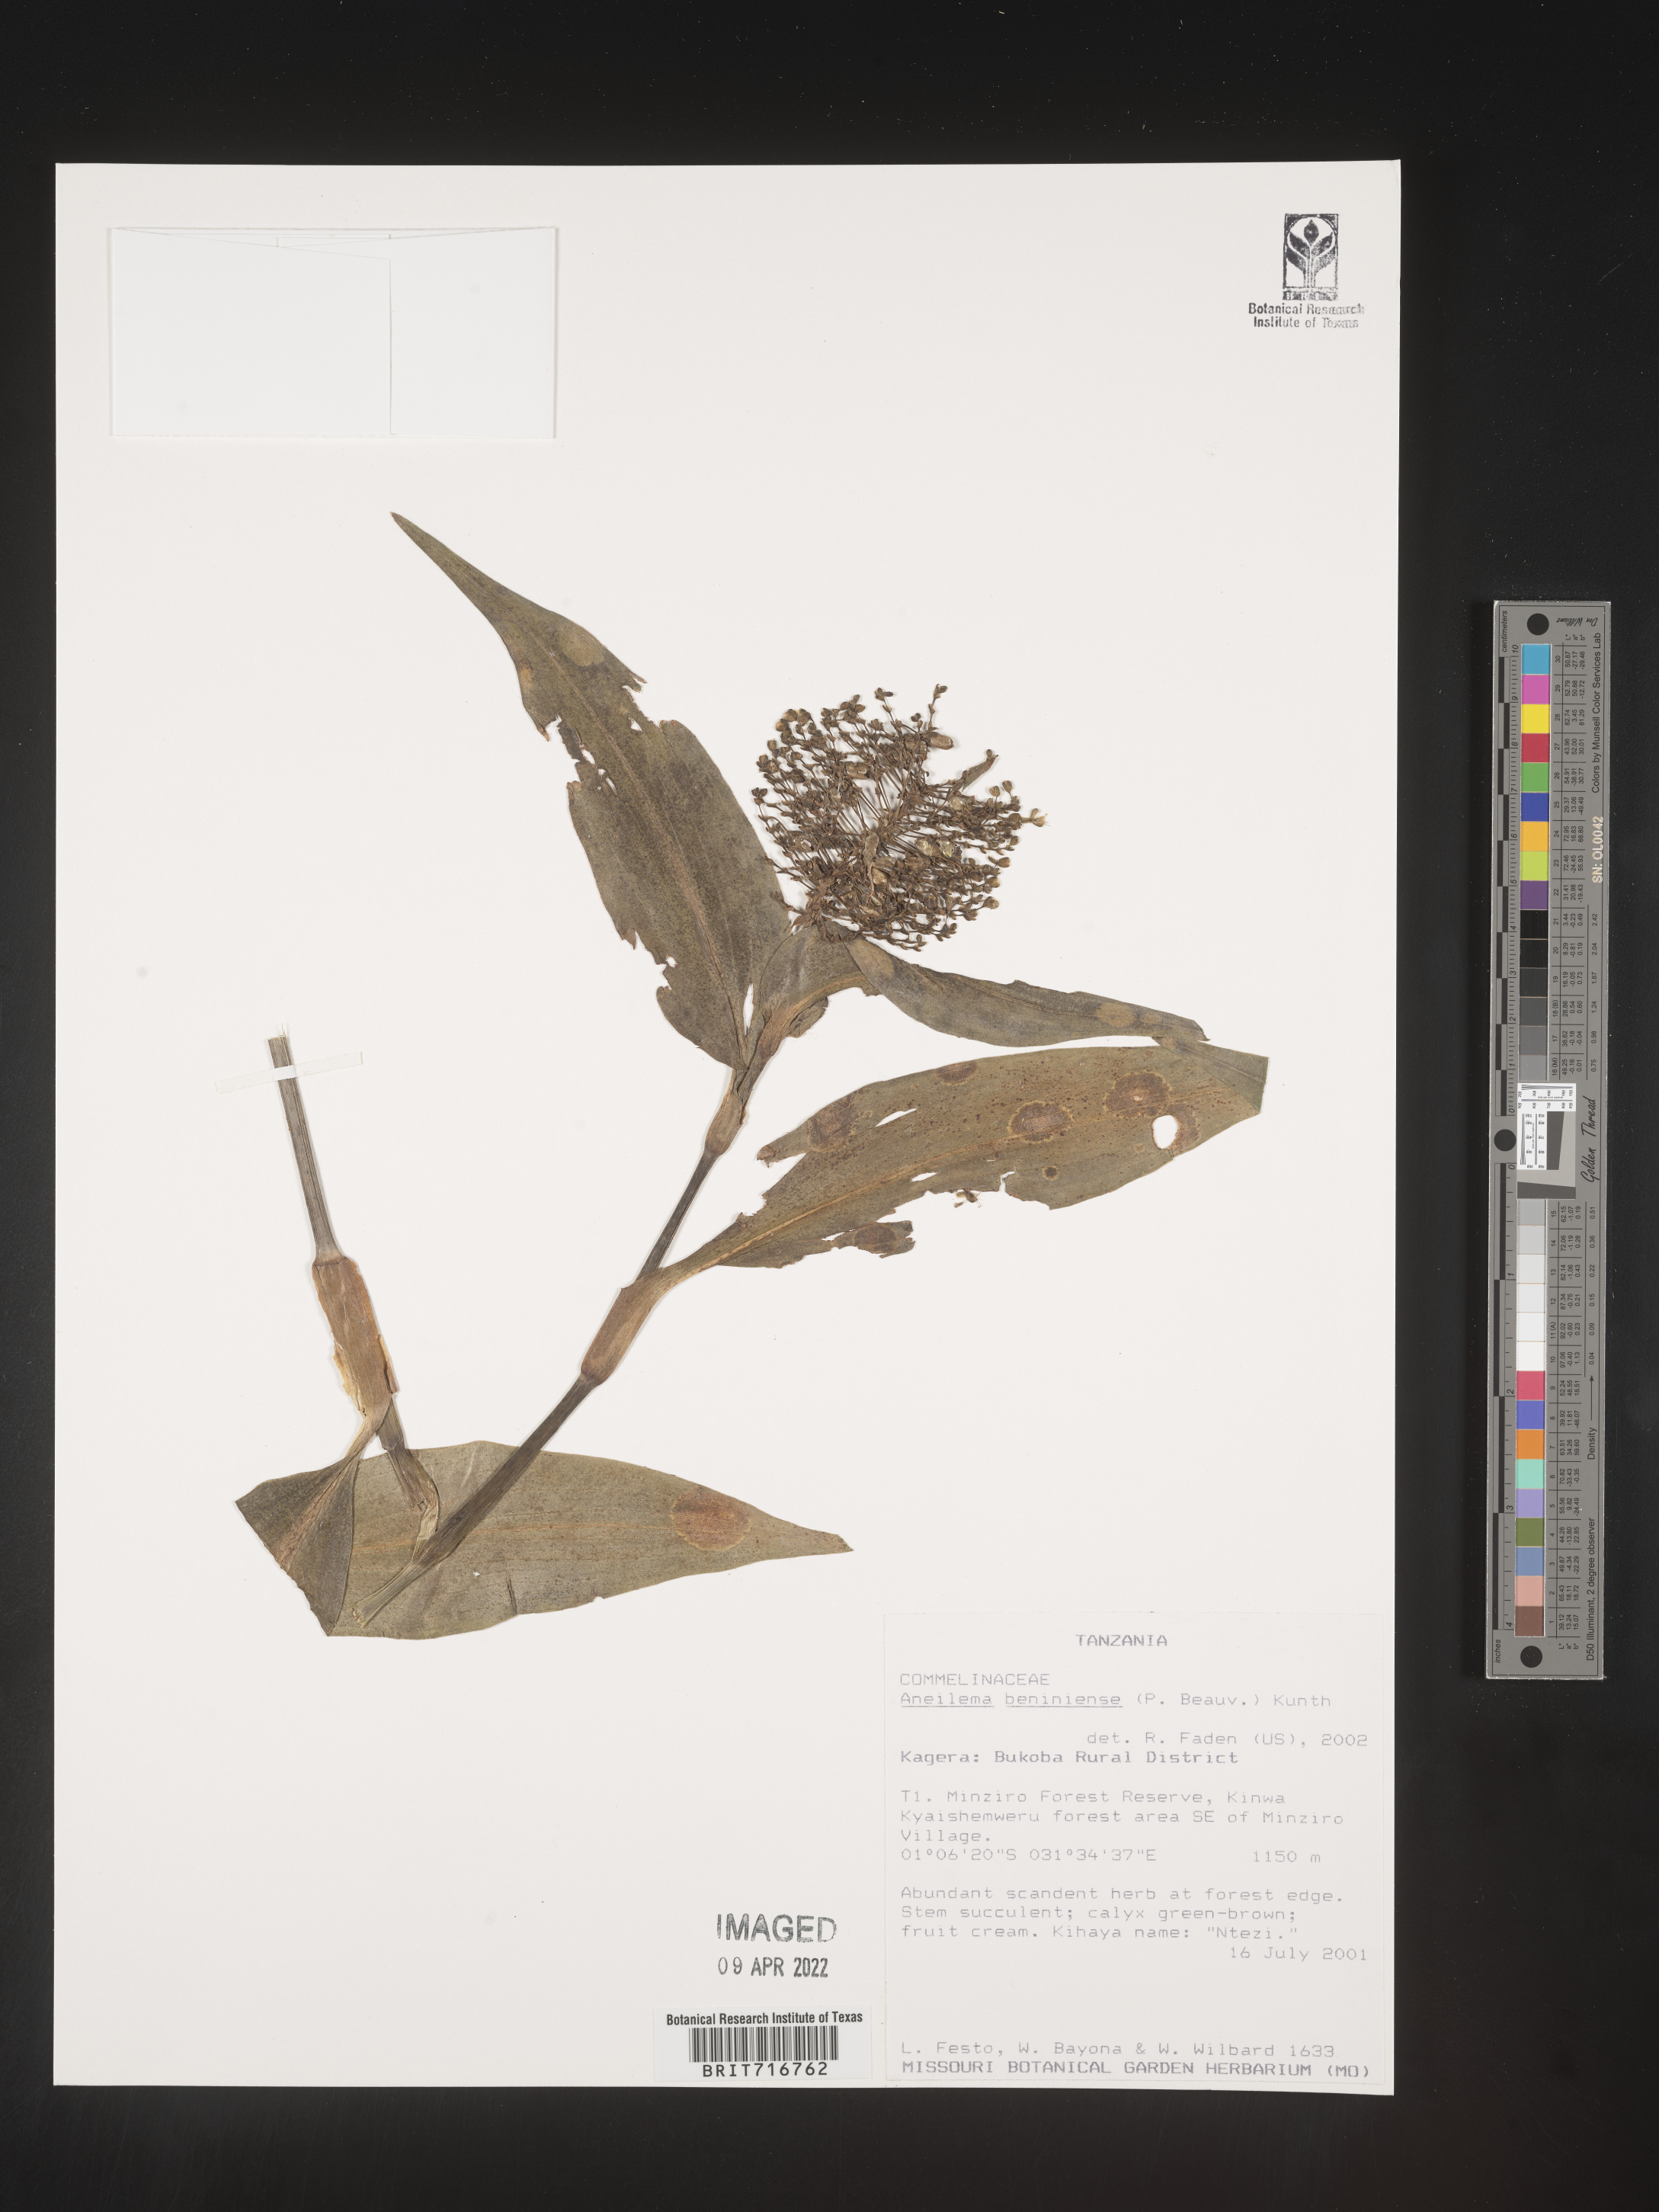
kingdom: Plantae
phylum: Tracheophyta
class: Liliopsida
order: Commelinales
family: Commelinaceae
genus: Aneilema
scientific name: Aneilema
